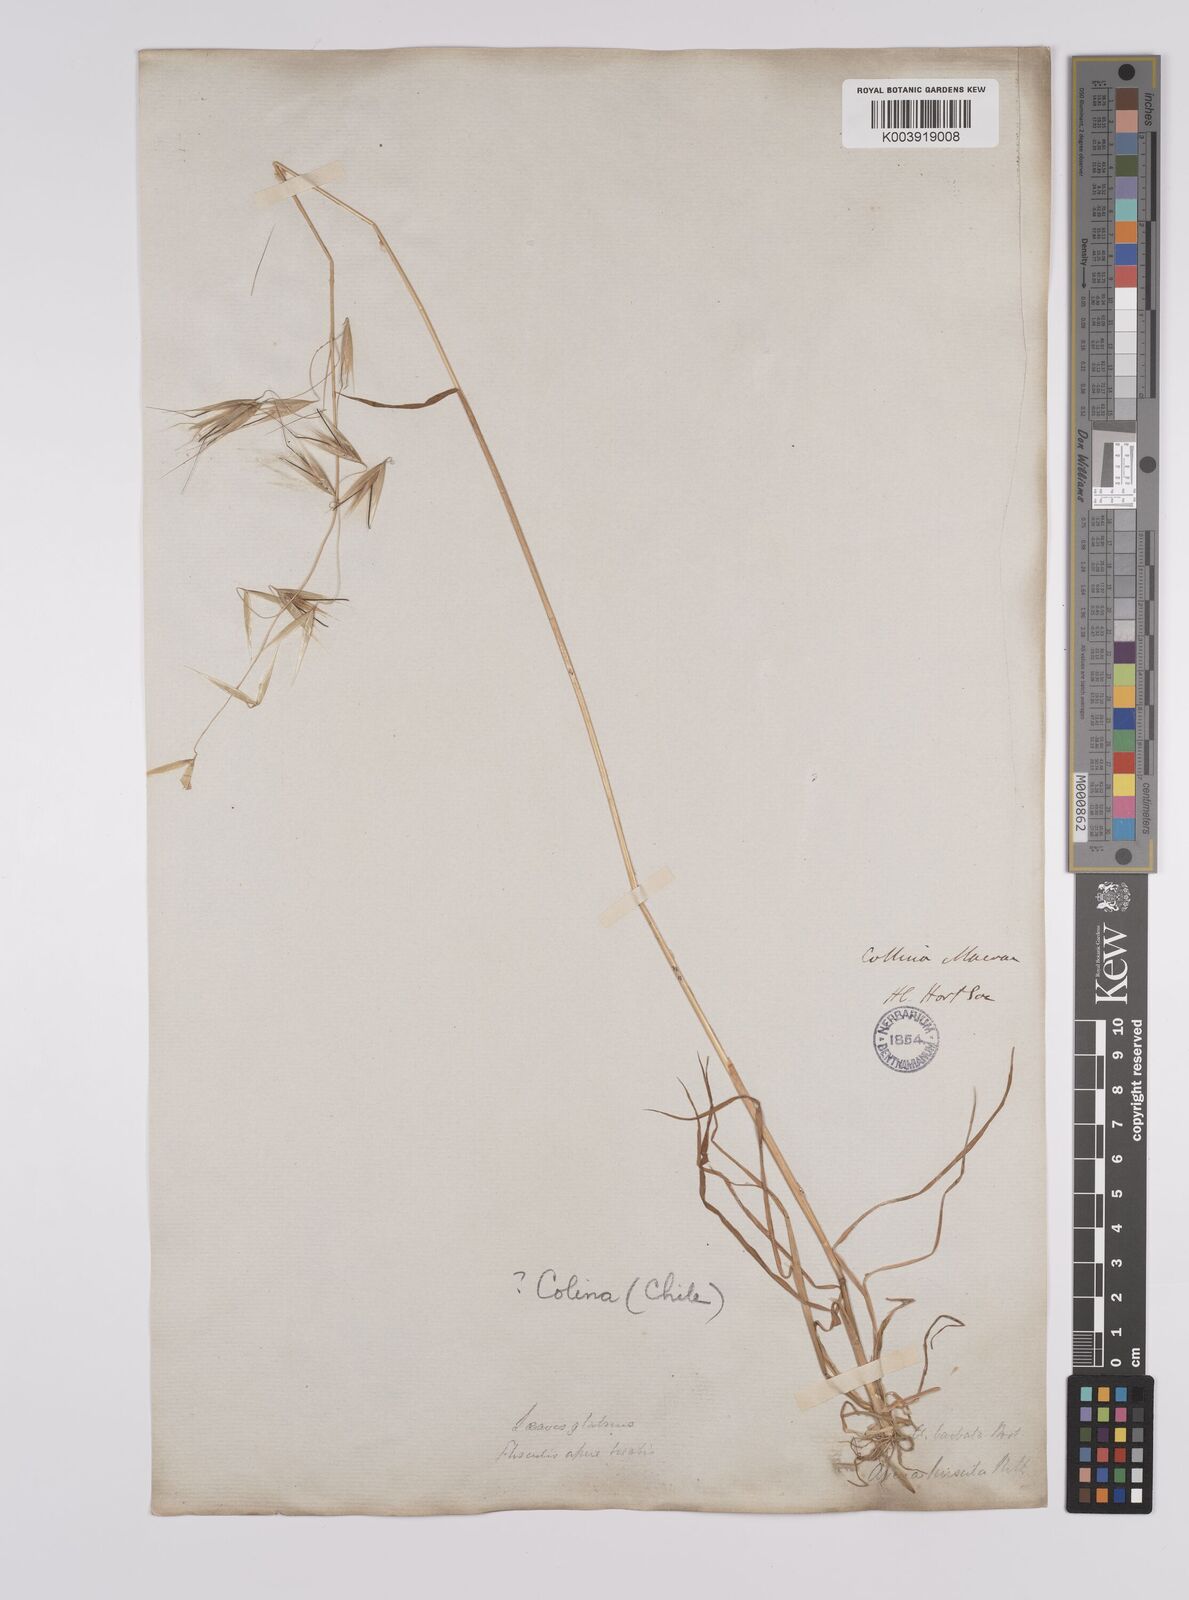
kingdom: Plantae
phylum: Tracheophyta
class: Liliopsida
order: Poales
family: Poaceae
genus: Avena
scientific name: Avena
